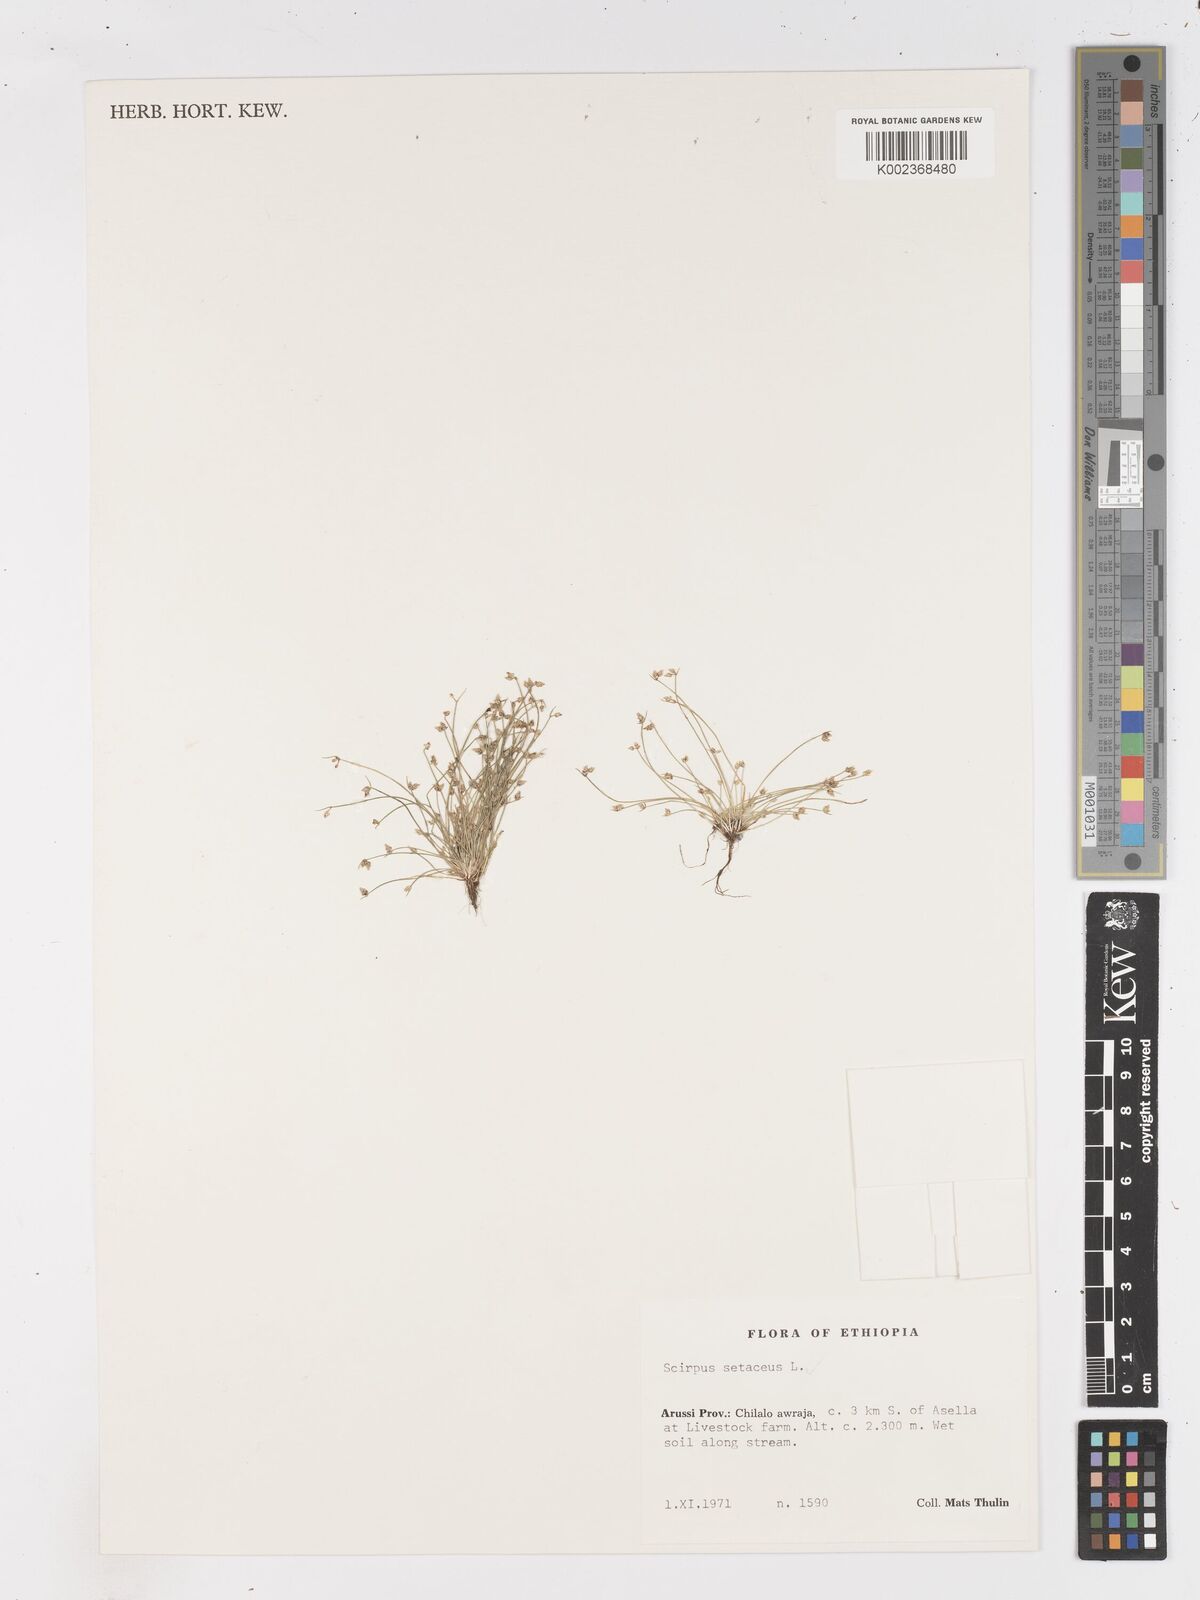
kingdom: Plantae
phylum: Tracheophyta
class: Liliopsida
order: Poales
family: Cyperaceae
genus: Isolepis
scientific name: Isolepis setacea
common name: Bristle club-rush
